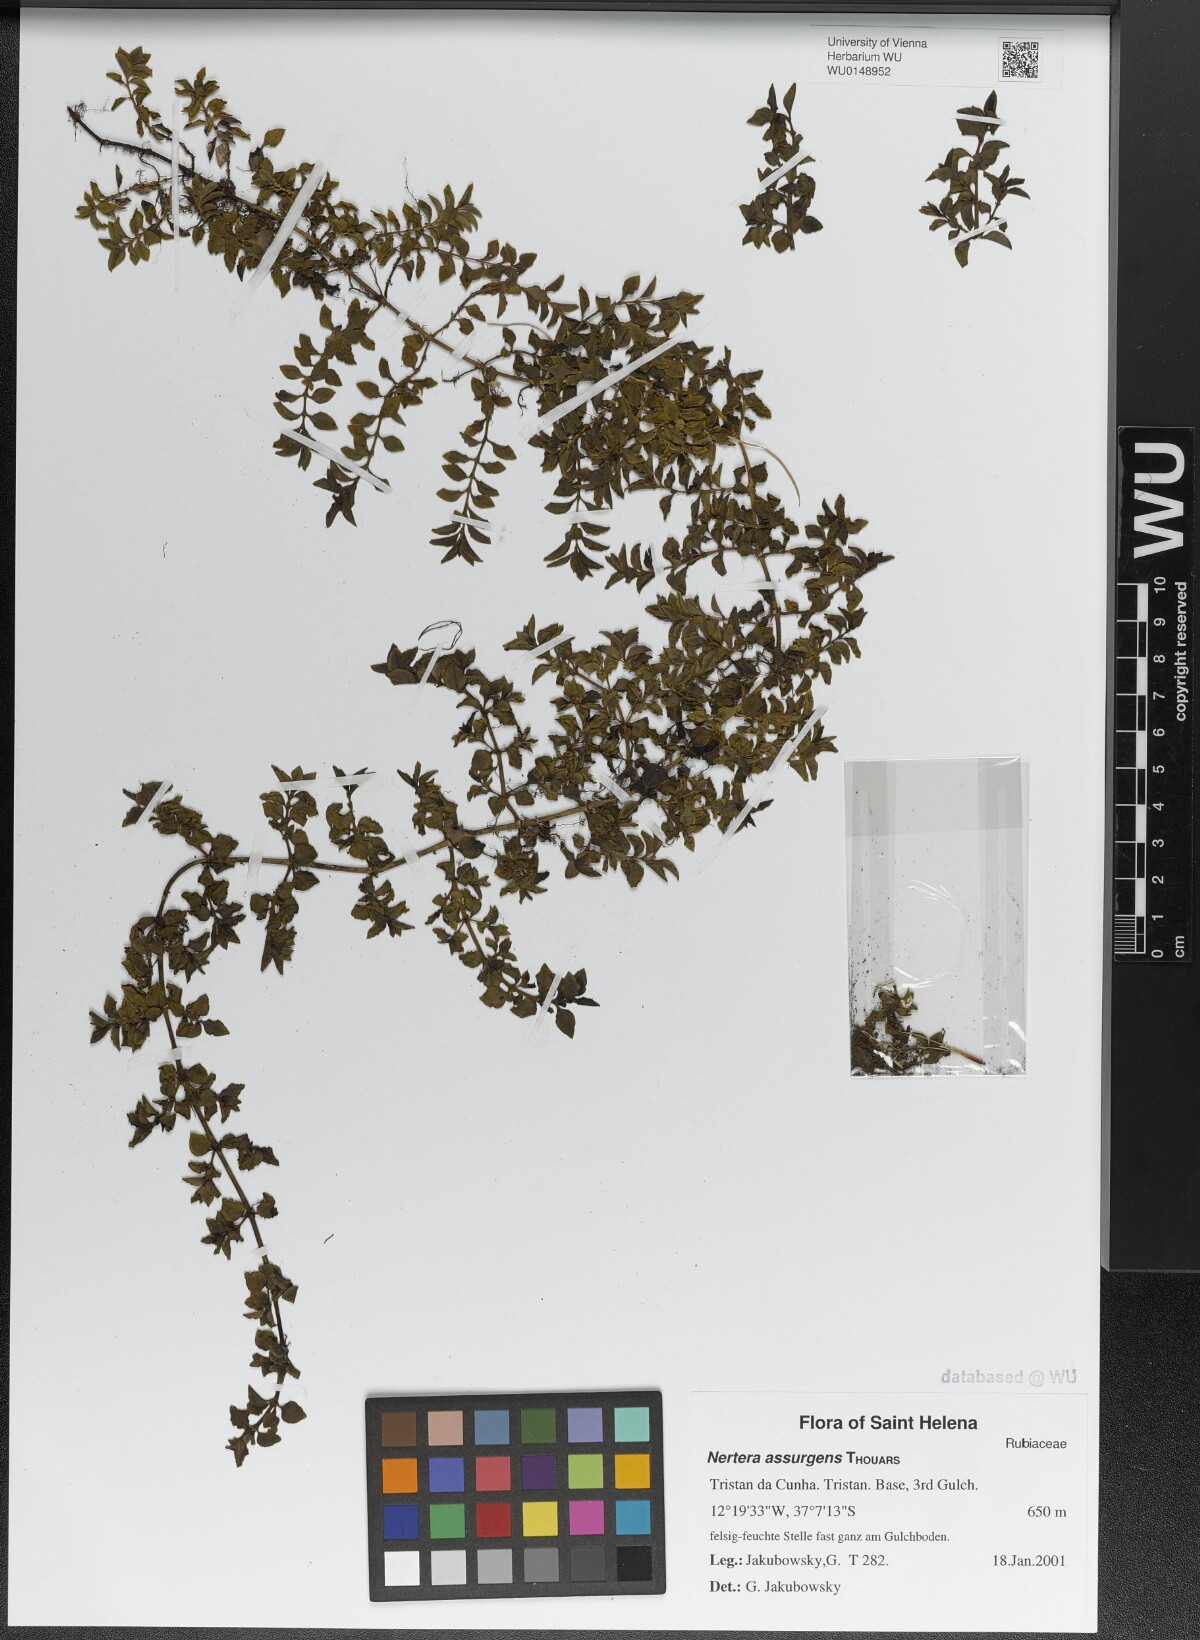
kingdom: Plantae
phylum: Tracheophyta
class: Magnoliopsida
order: Gentianales
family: Rubiaceae
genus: Nertera
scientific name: Nertera granadensis
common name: Beadplant
